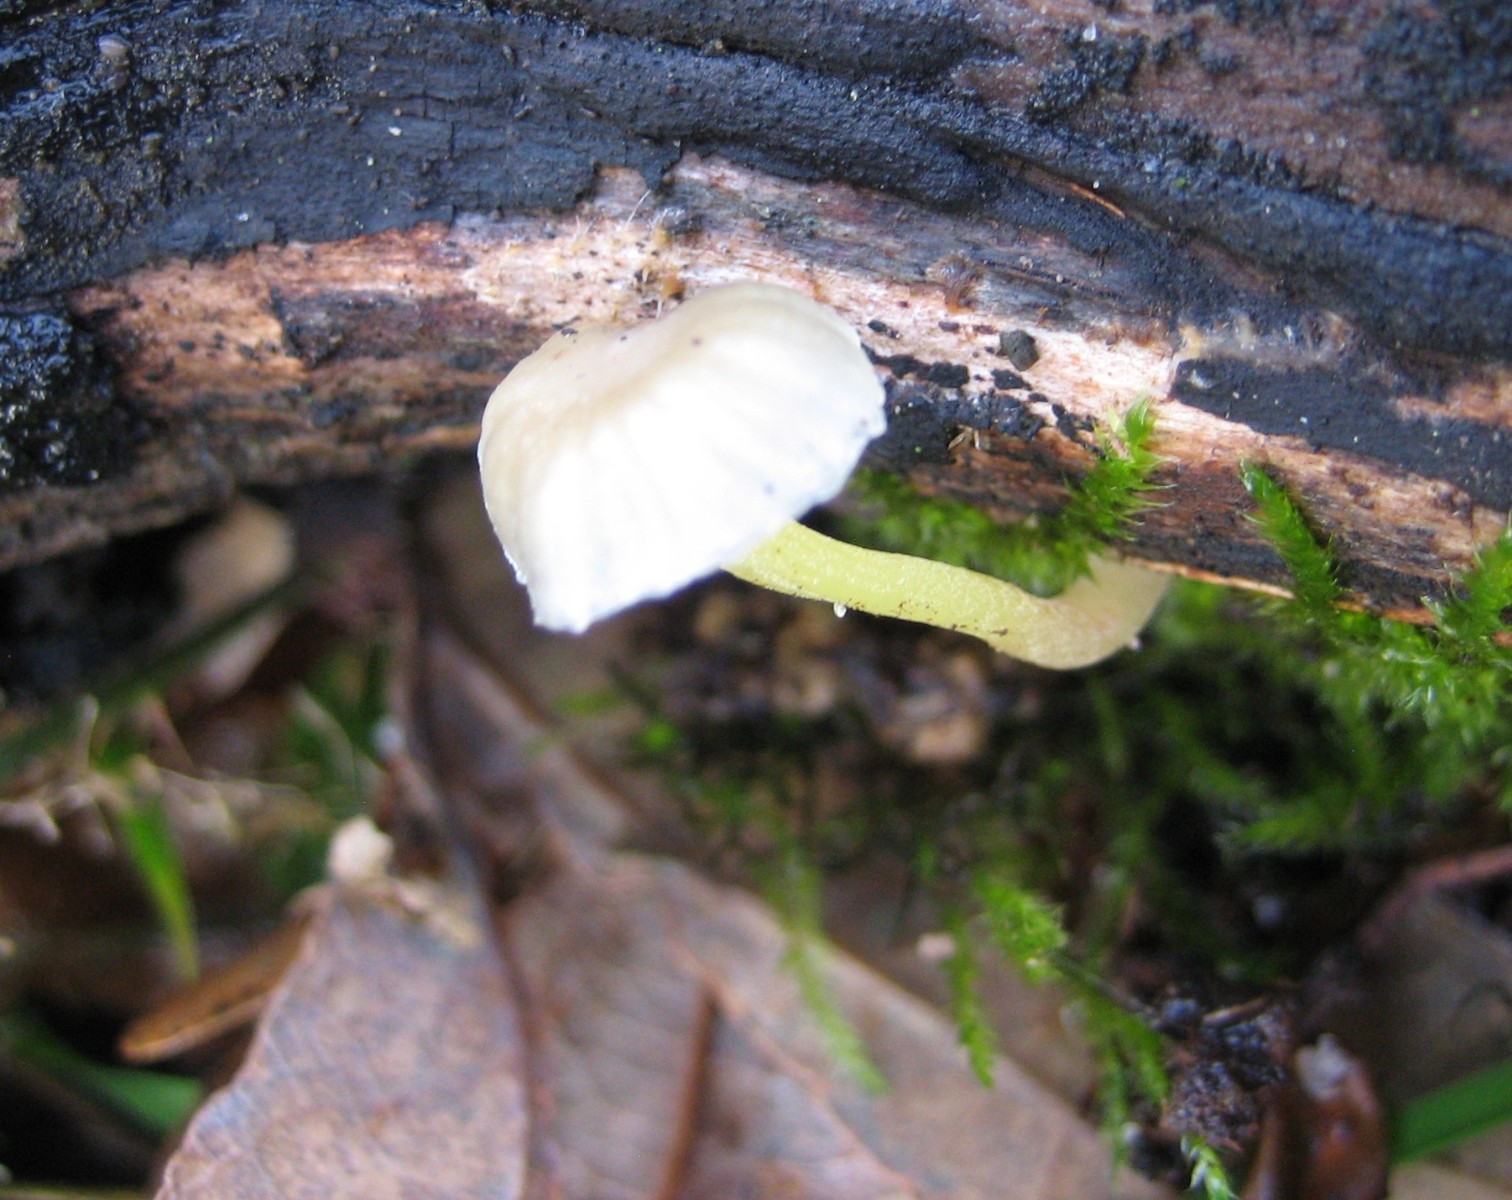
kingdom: Fungi
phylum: Basidiomycota
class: Agaricomycetes
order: Agaricales
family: Mycenaceae
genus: Mycena
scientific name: Mycena epipterygia
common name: gulstokket huesvamp
